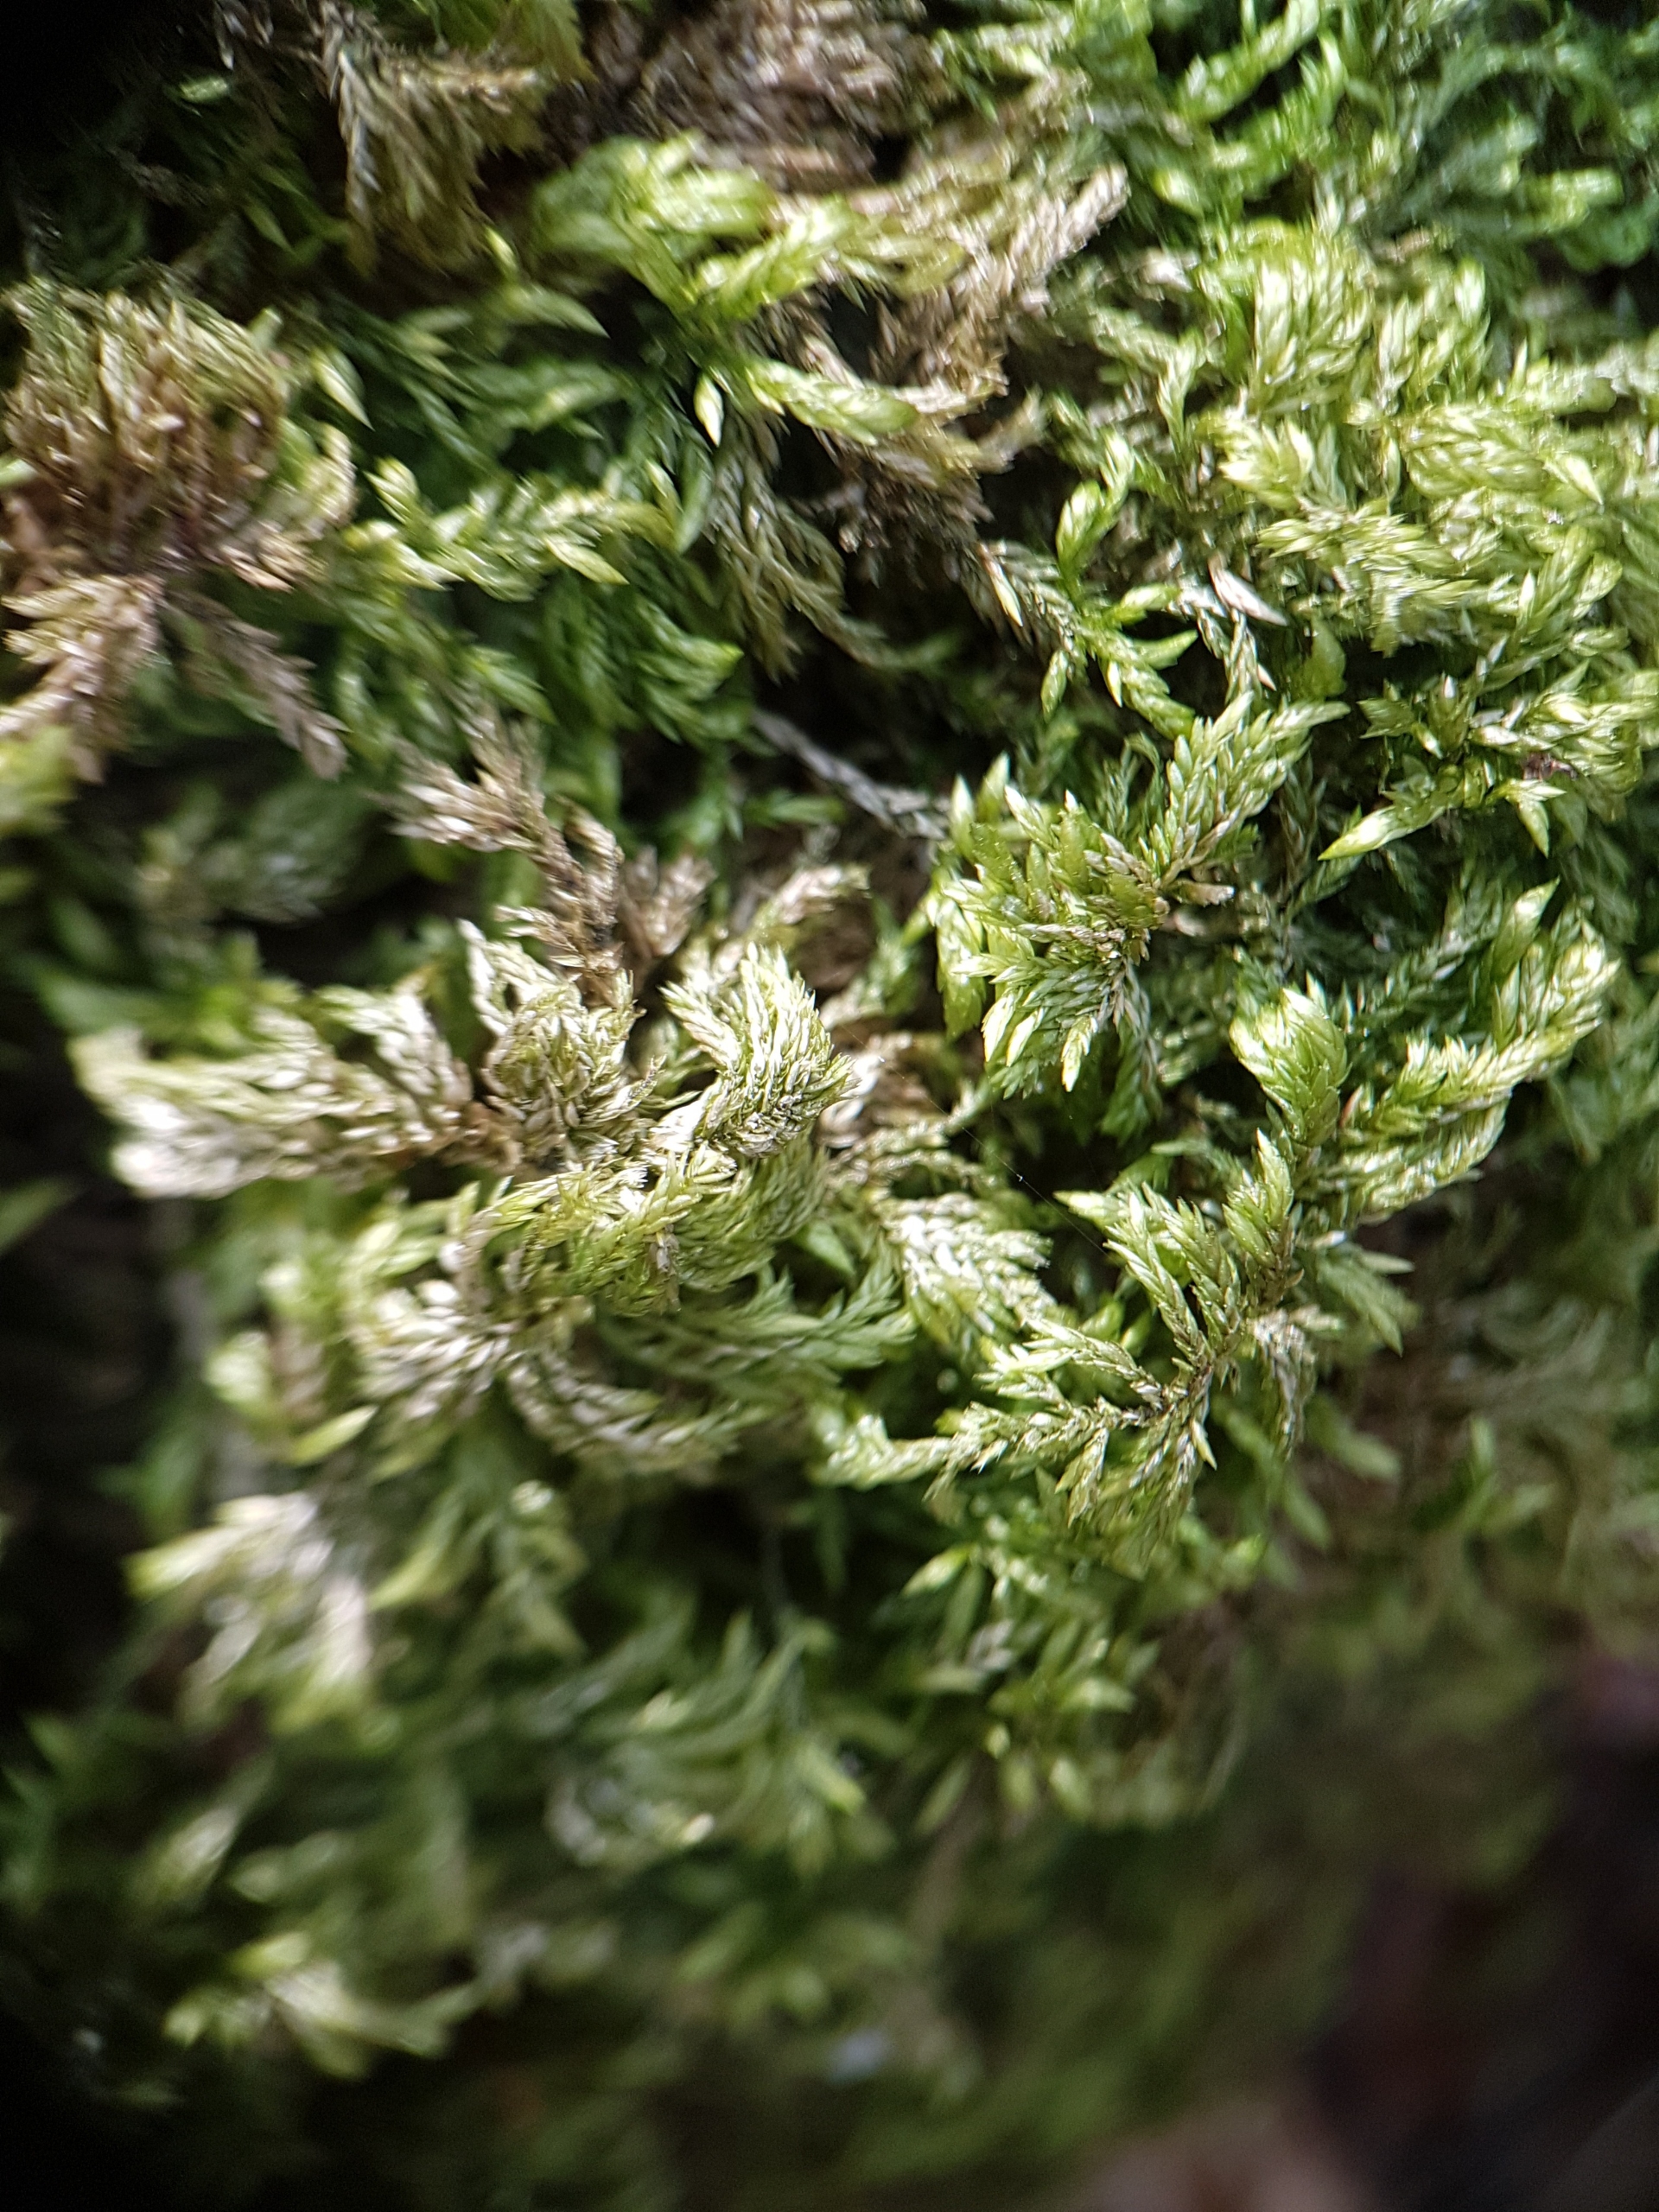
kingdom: Plantae
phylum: Bryophyta
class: Bryopsida
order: Hypnales
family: Lembophyllaceae
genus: Isothecium
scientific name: Isothecium alopecuroides
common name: Stor stammemos
